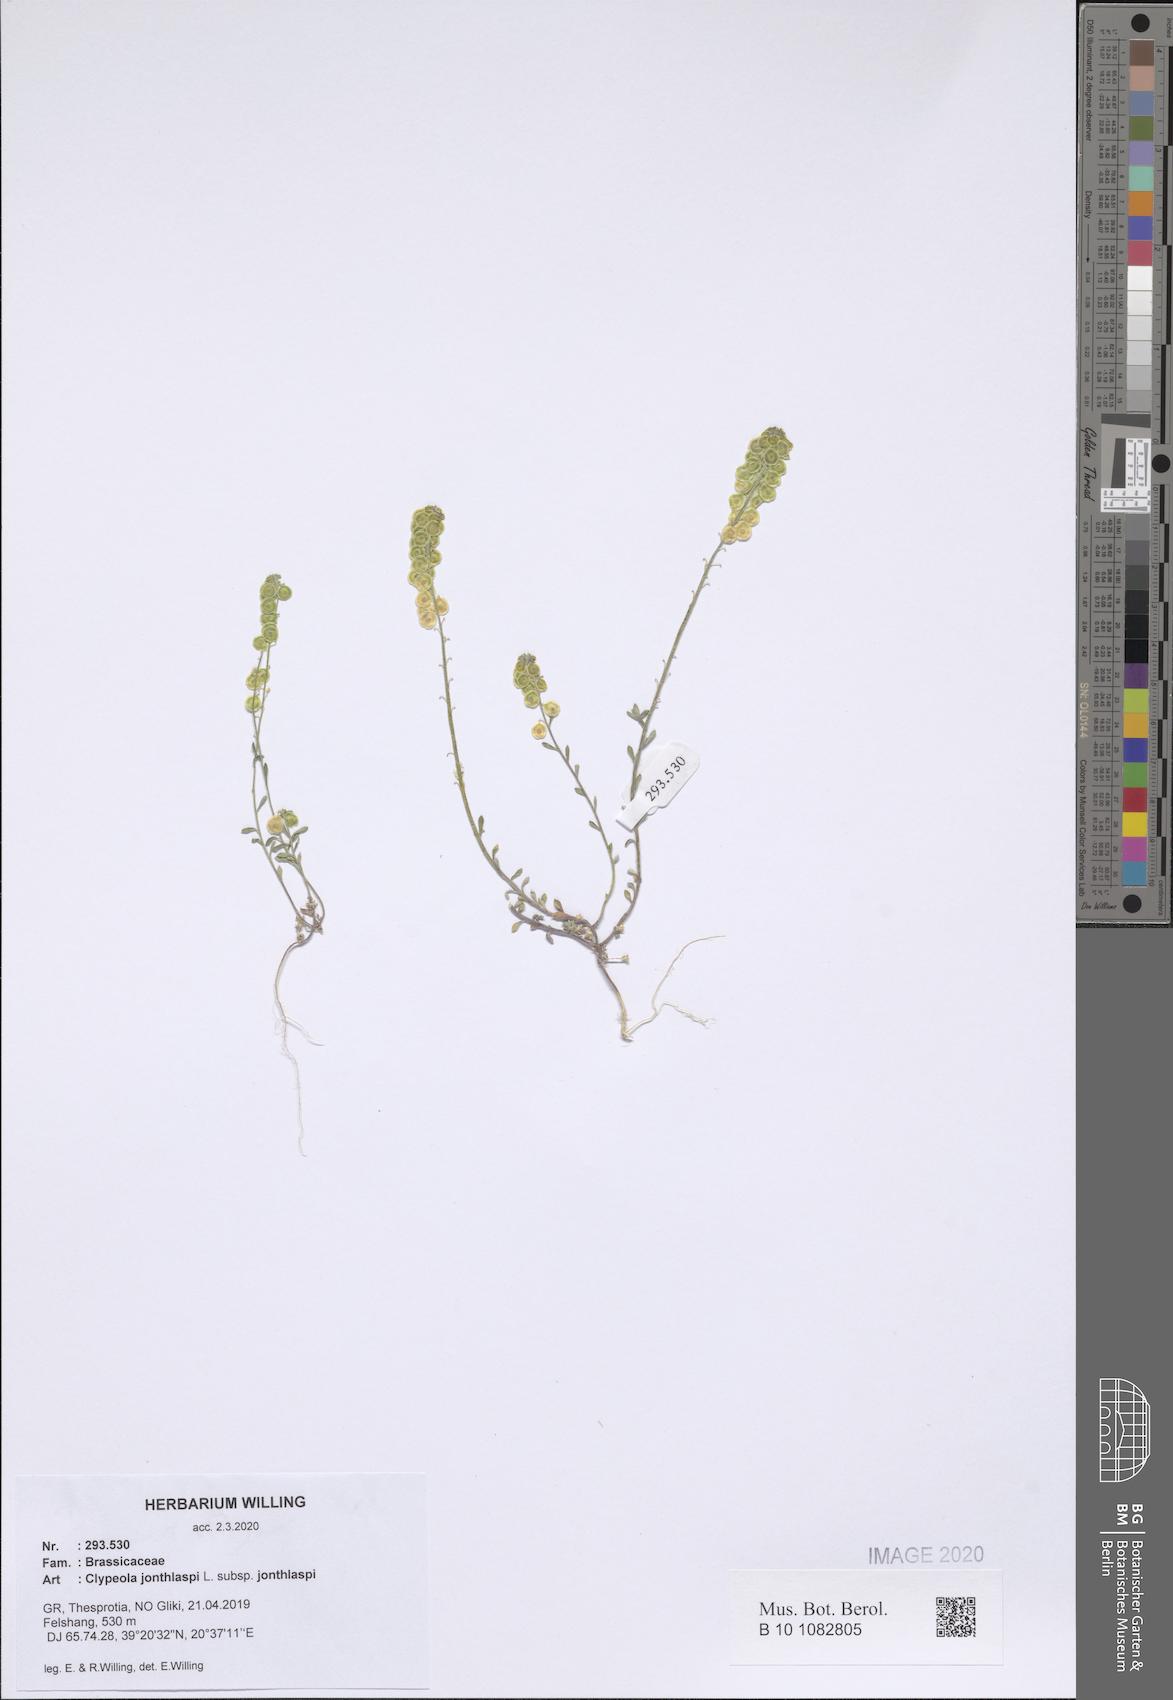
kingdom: Plantae
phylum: Tracheophyta
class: Magnoliopsida
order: Brassicales
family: Brassicaceae
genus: Clypeola
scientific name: Clypeola jonthlaspi
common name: Disk cress
